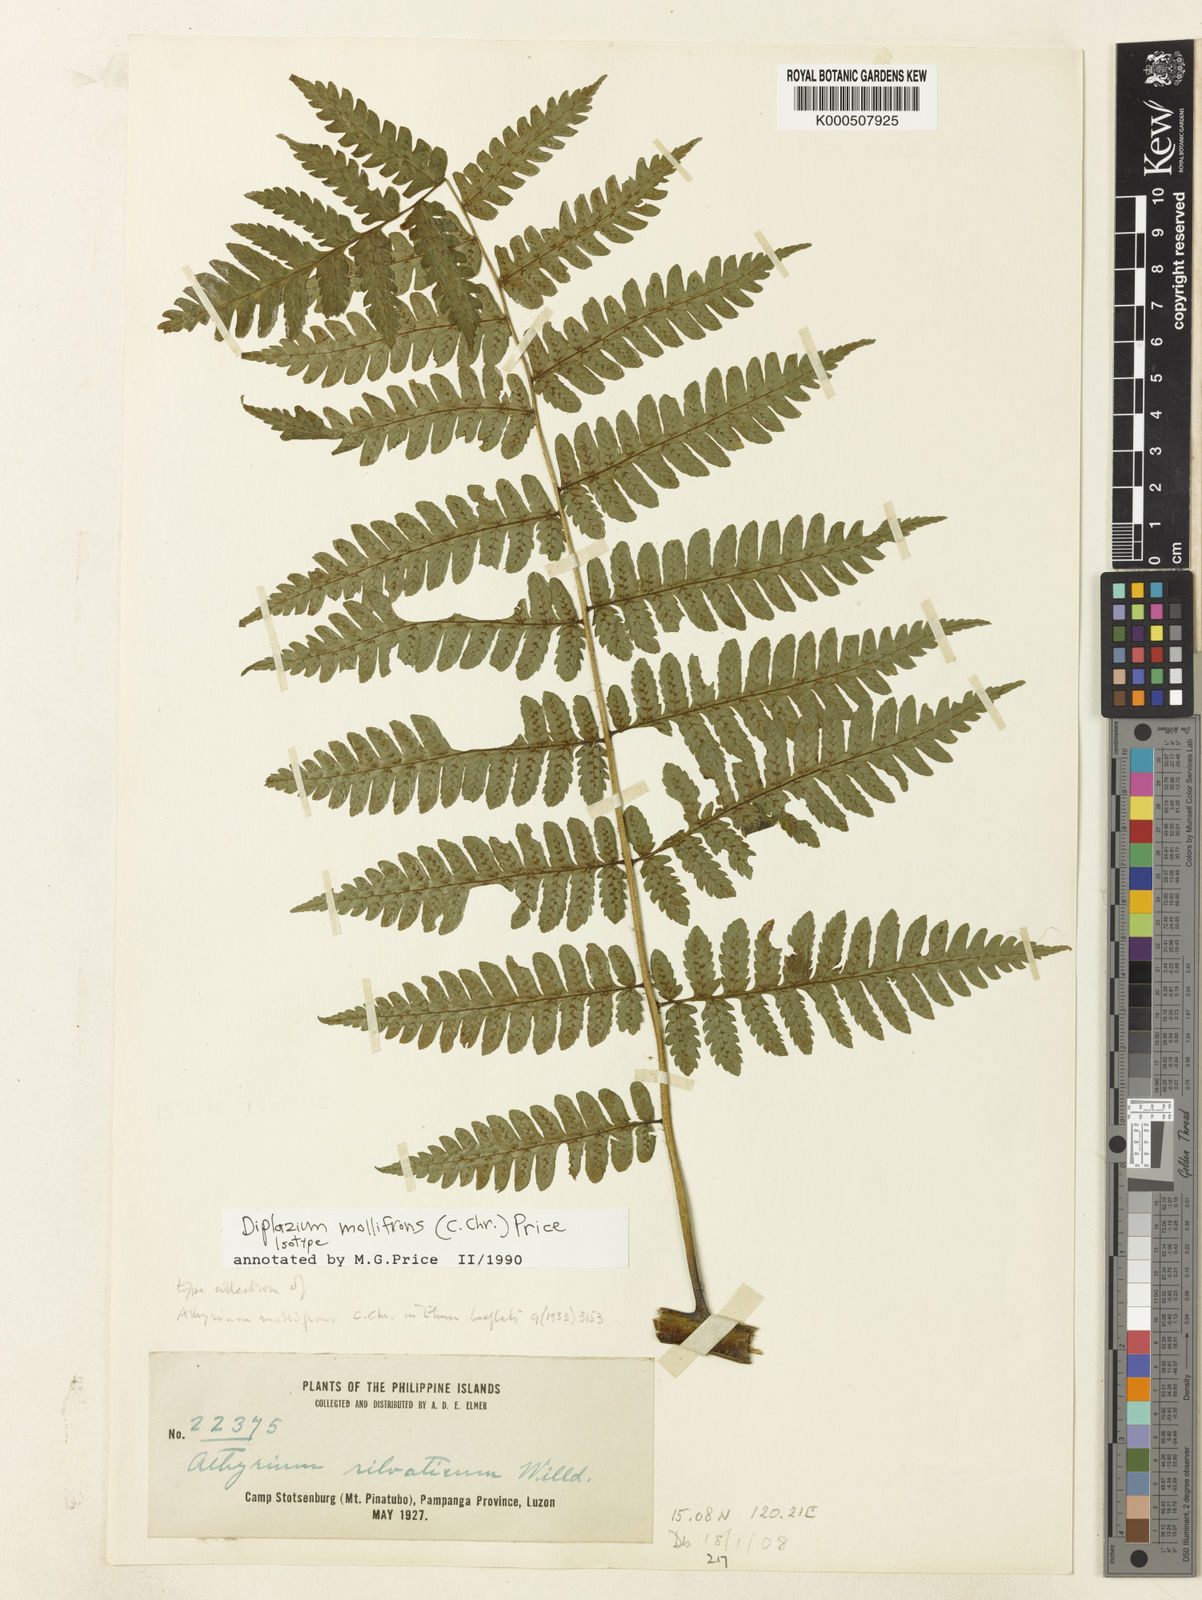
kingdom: Plantae
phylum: Tracheophyta
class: Polypodiopsida
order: Polypodiales
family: Athyriaceae
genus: Diplazium
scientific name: Diplazium mollifrons
